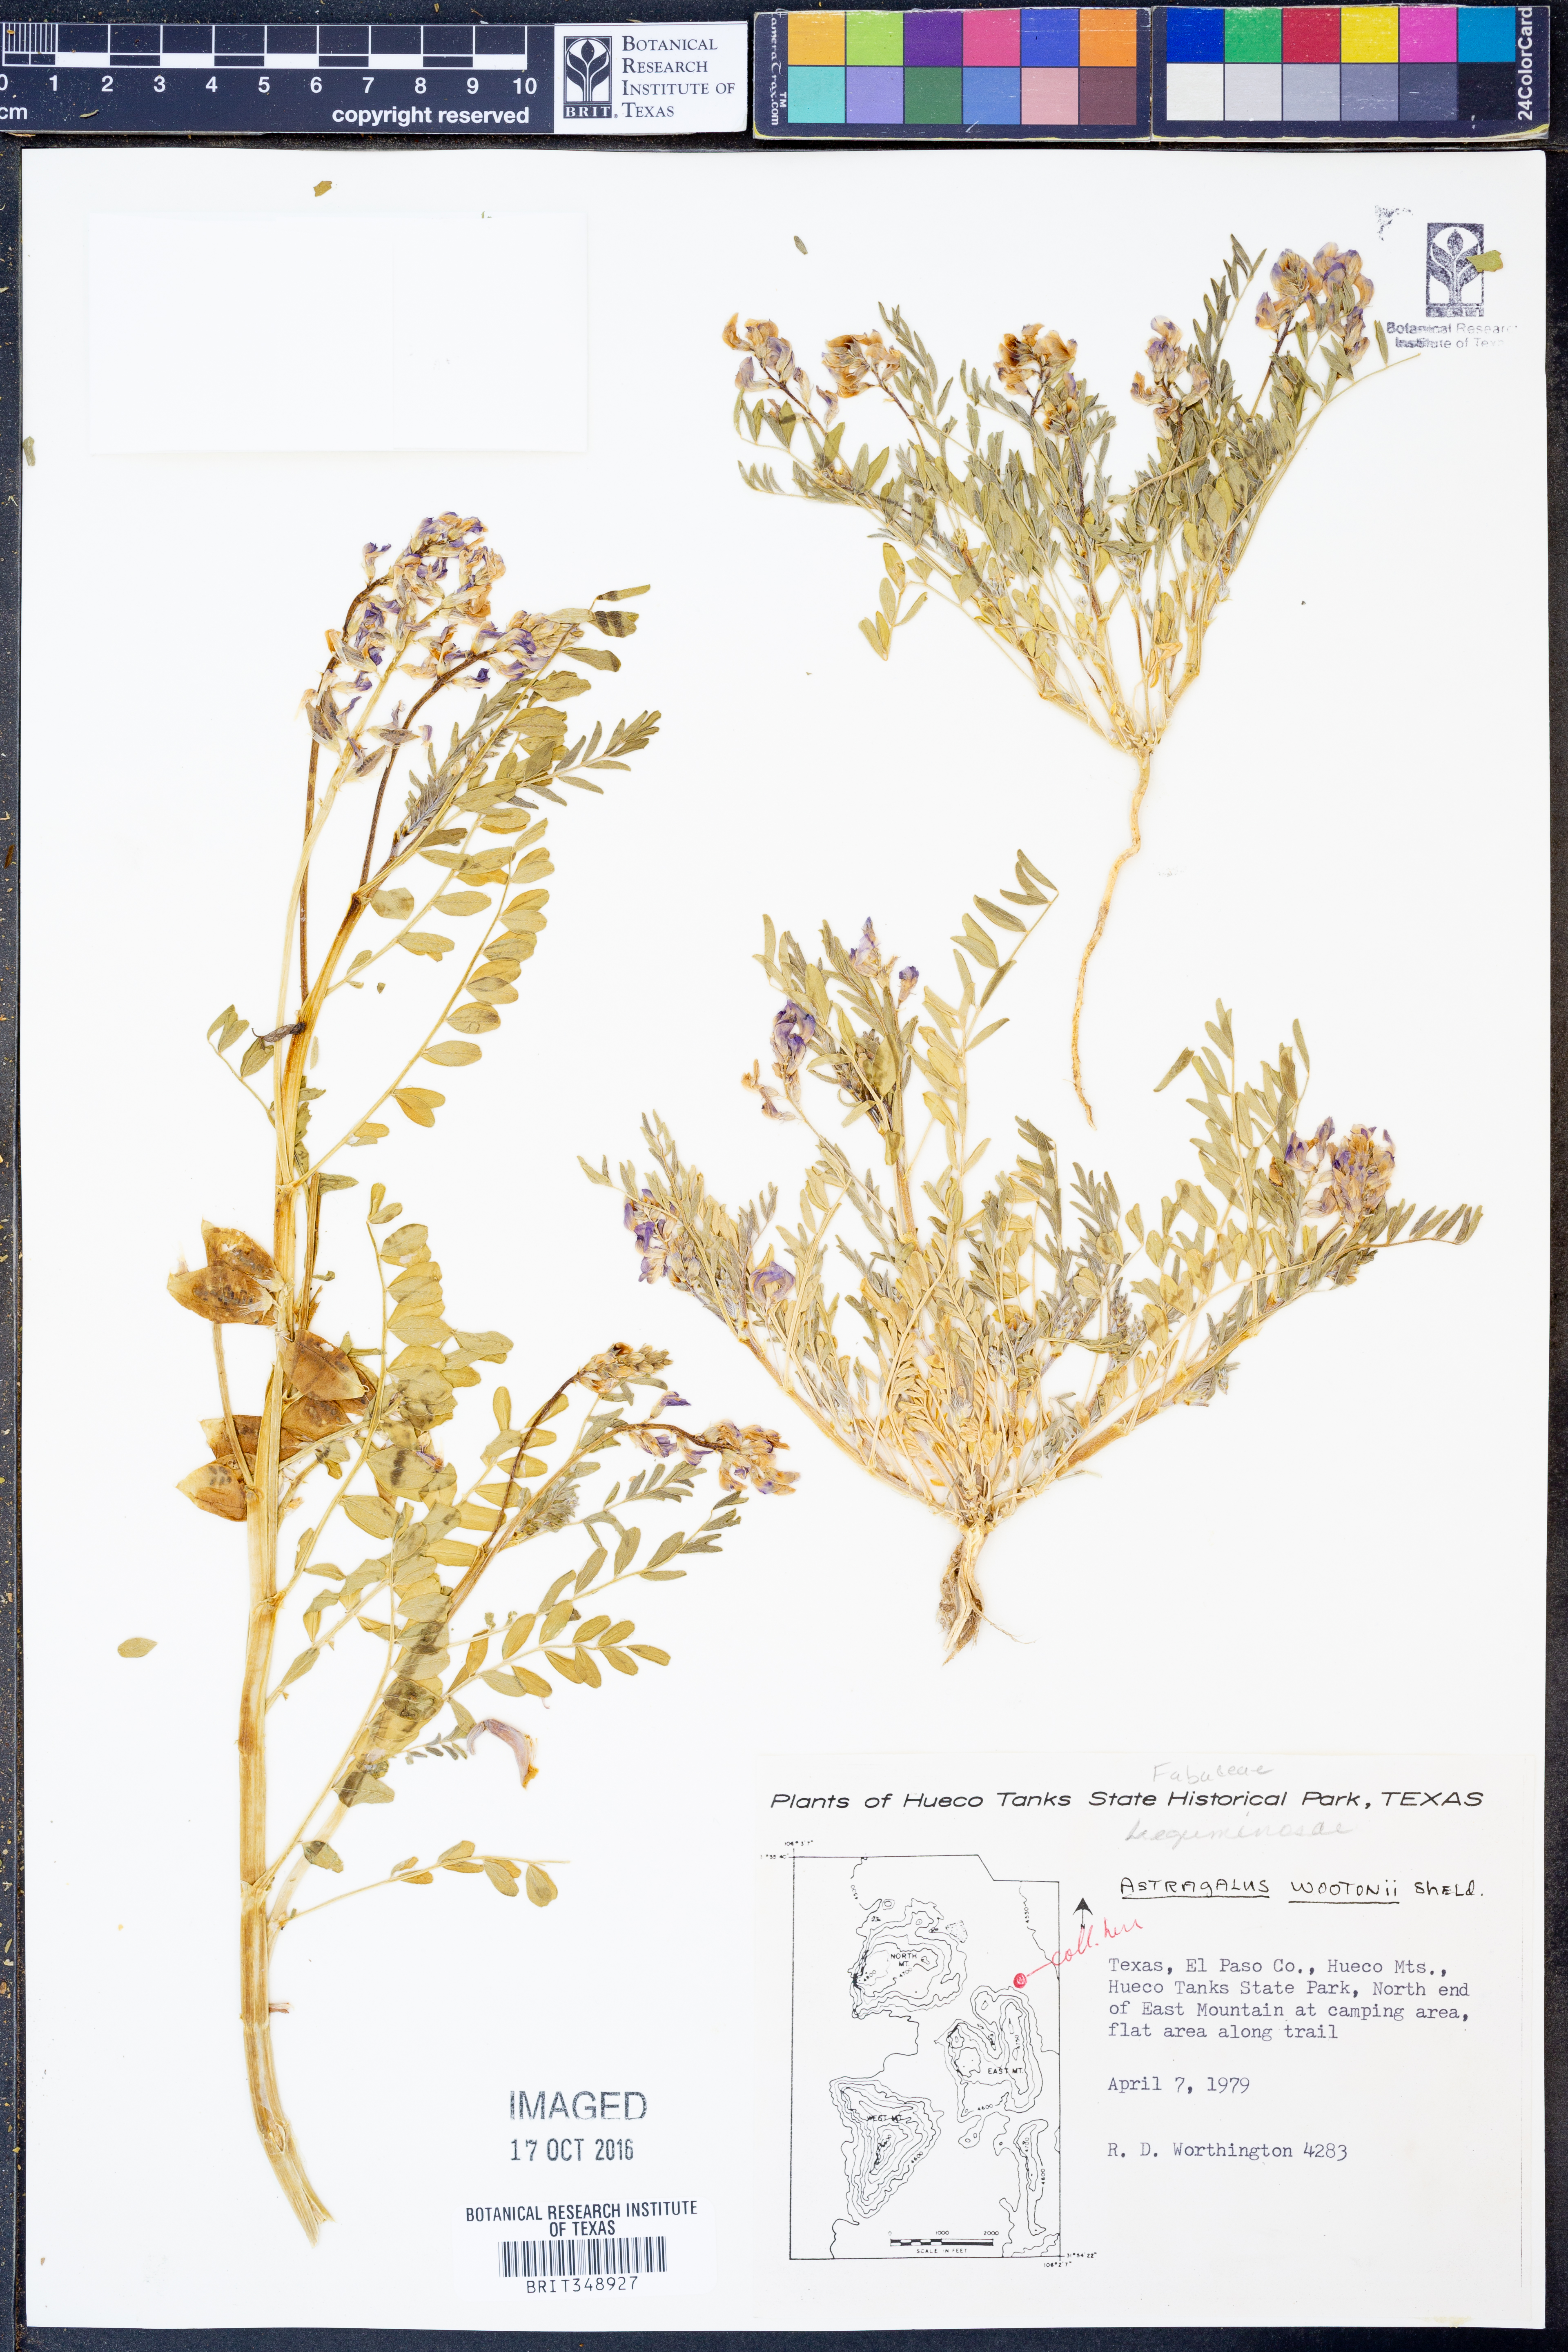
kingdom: Plantae
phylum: Tracheophyta
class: Magnoliopsida
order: Fabales
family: Fabaceae
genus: Astragalus
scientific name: Astragalus wootonii
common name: Wooton's milk-vetch
